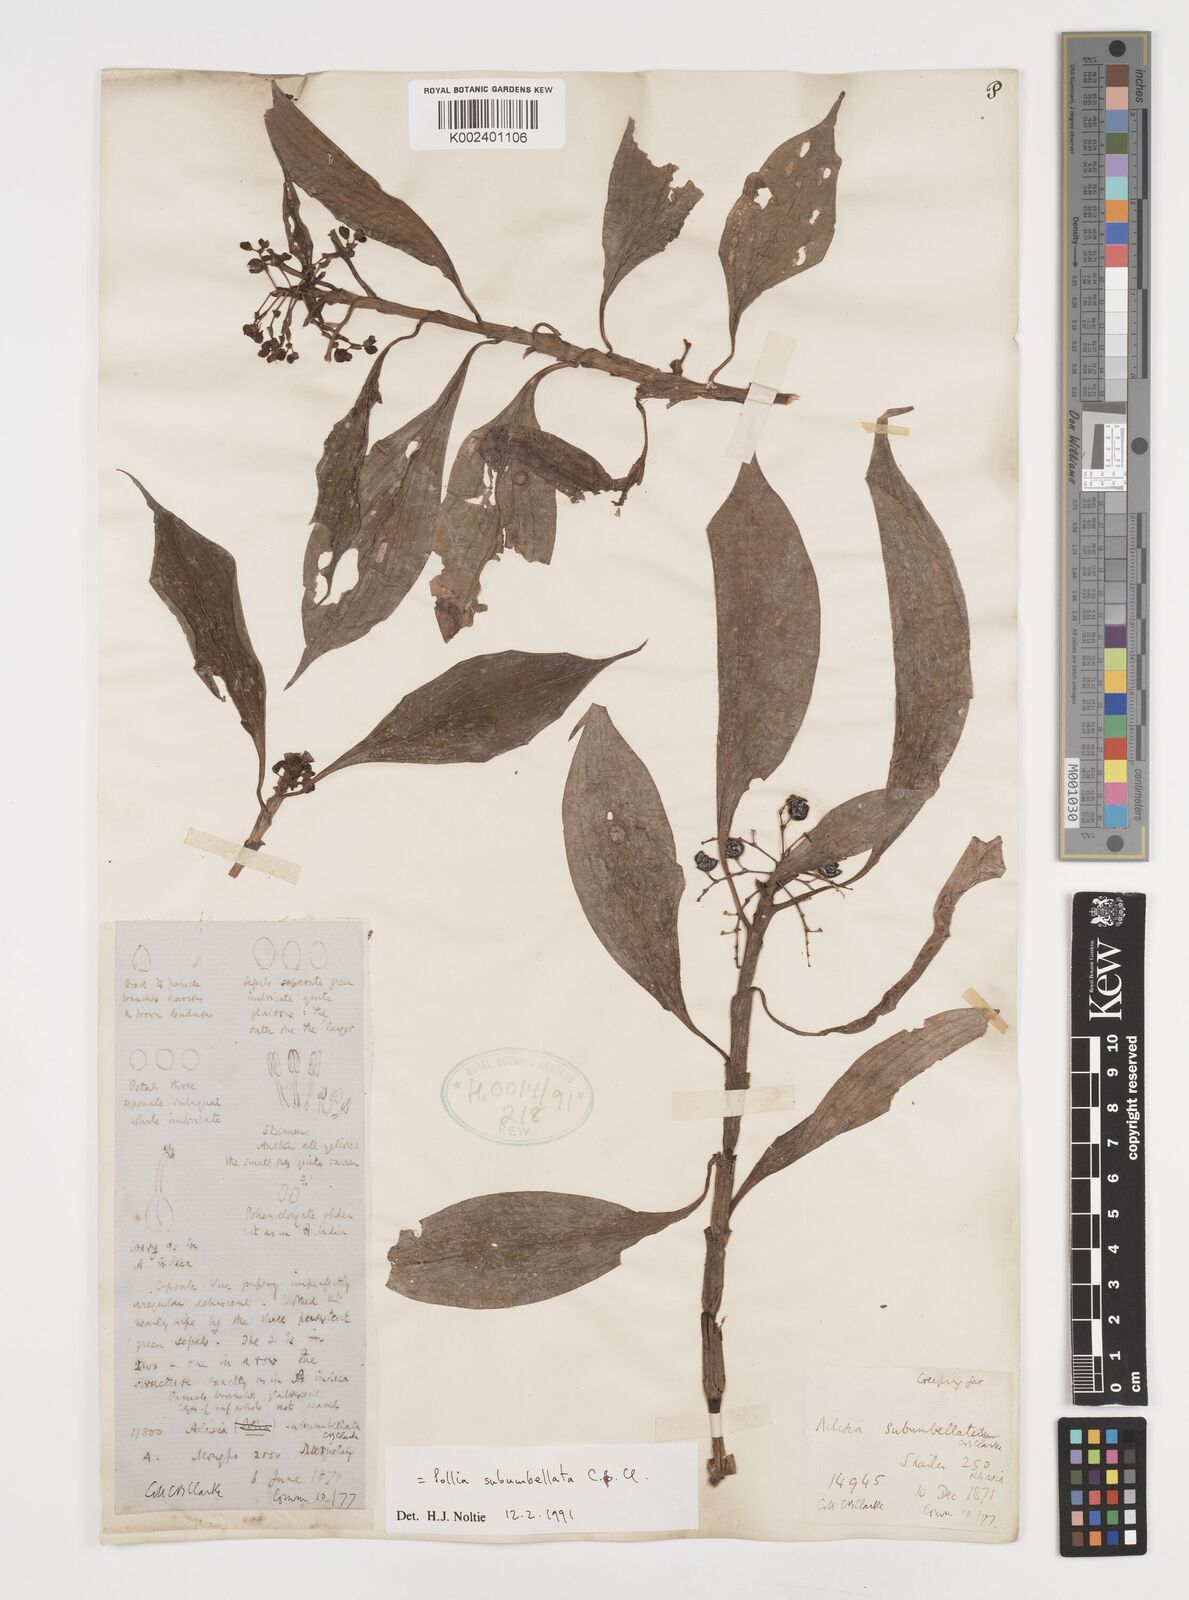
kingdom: Plantae
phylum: Tracheophyta
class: Liliopsida
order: Commelinales
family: Commelinaceae
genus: Pollia
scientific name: Pollia subumbellata
